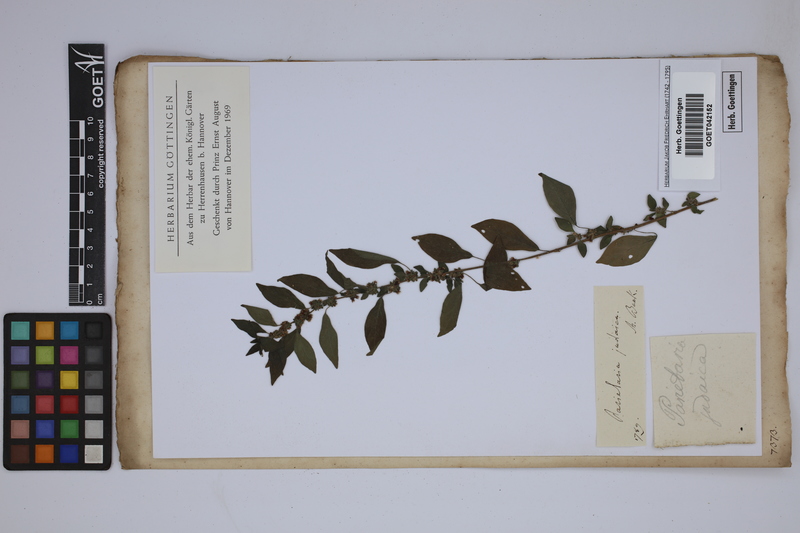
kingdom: Plantae
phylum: Tracheophyta
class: Magnoliopsida
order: Rosales
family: Urticaceae
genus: Parietaria
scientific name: Parietaria judaica
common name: Pellitory-of-the-wall
